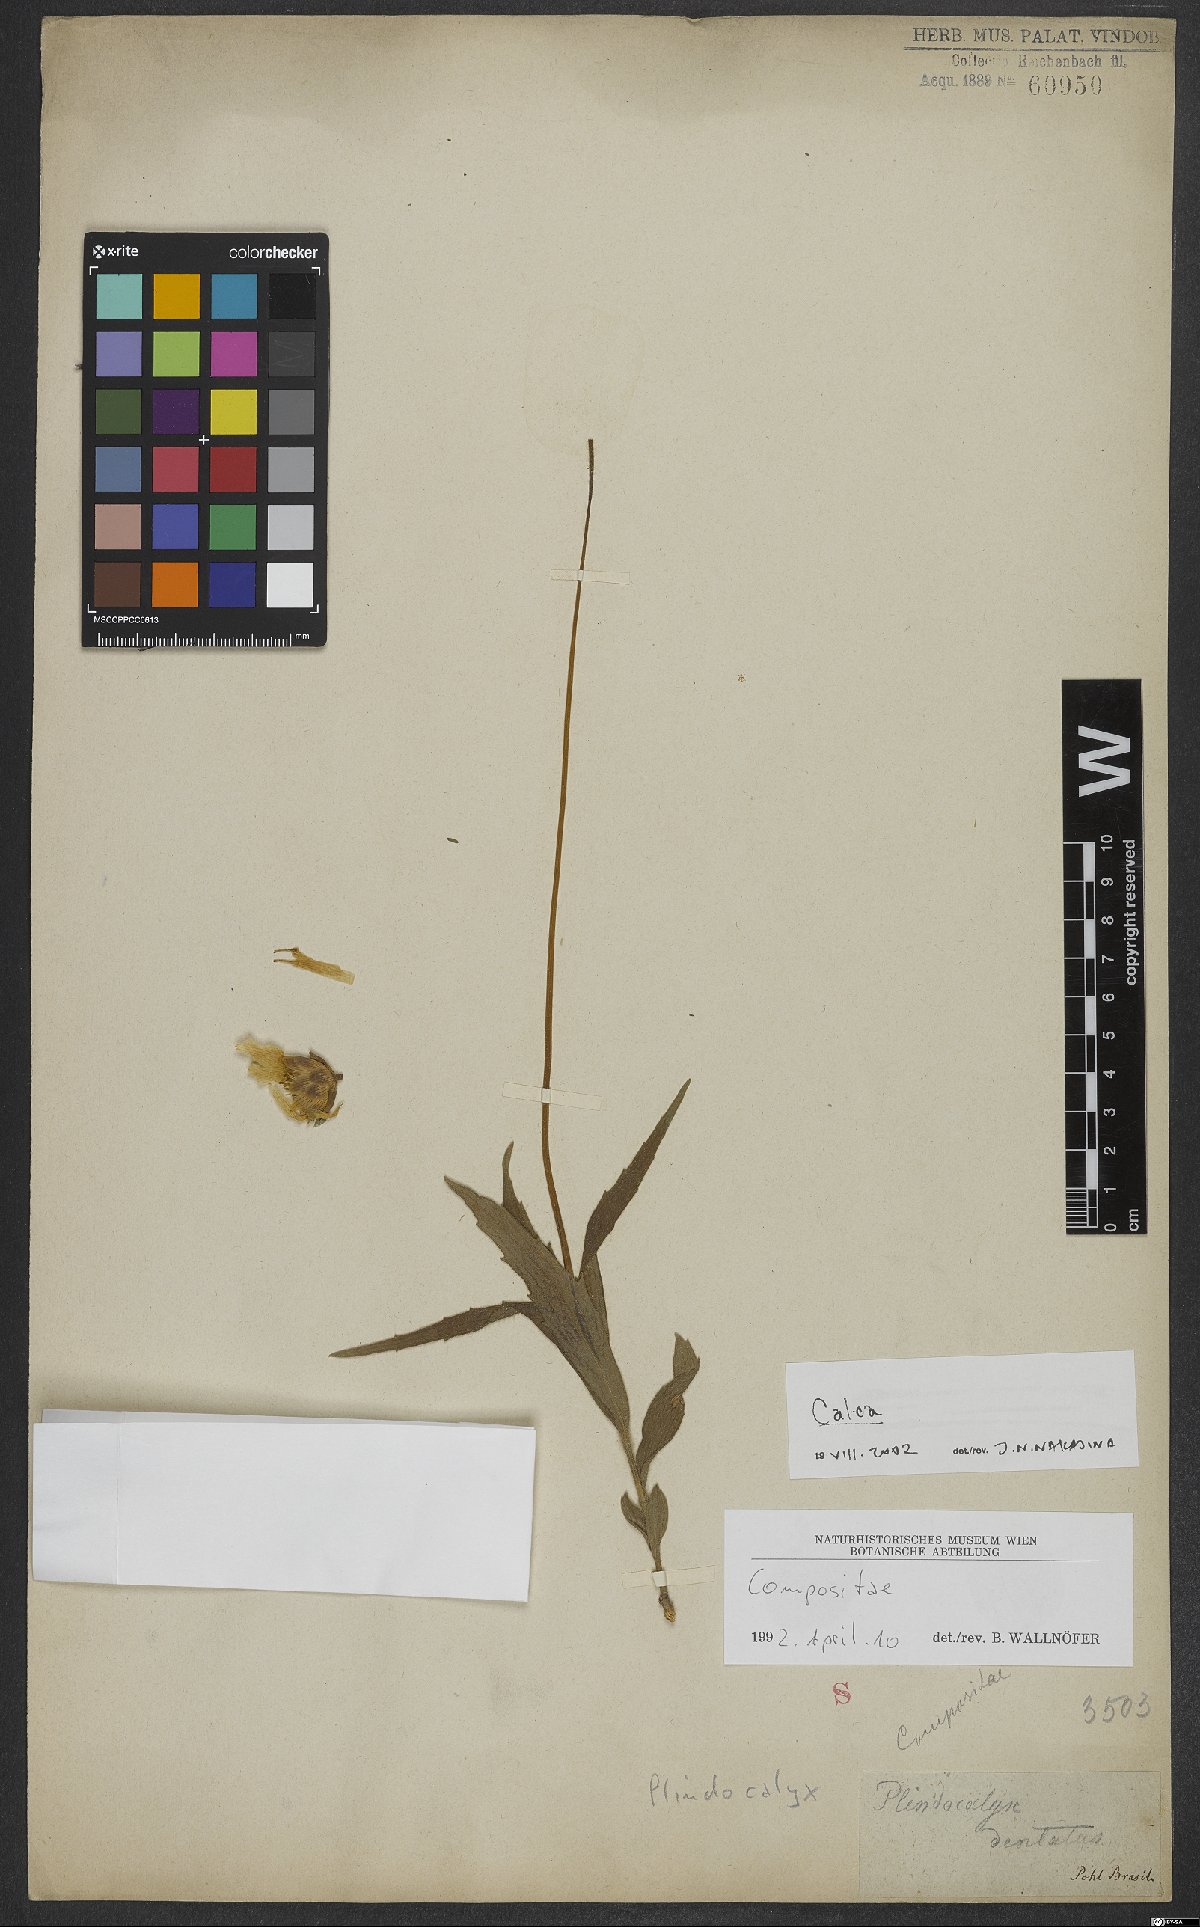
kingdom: Plantae
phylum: Tracheophyta
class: Magnoliopsida
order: Asterales
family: Asteraceae
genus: Calea
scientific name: Calea
